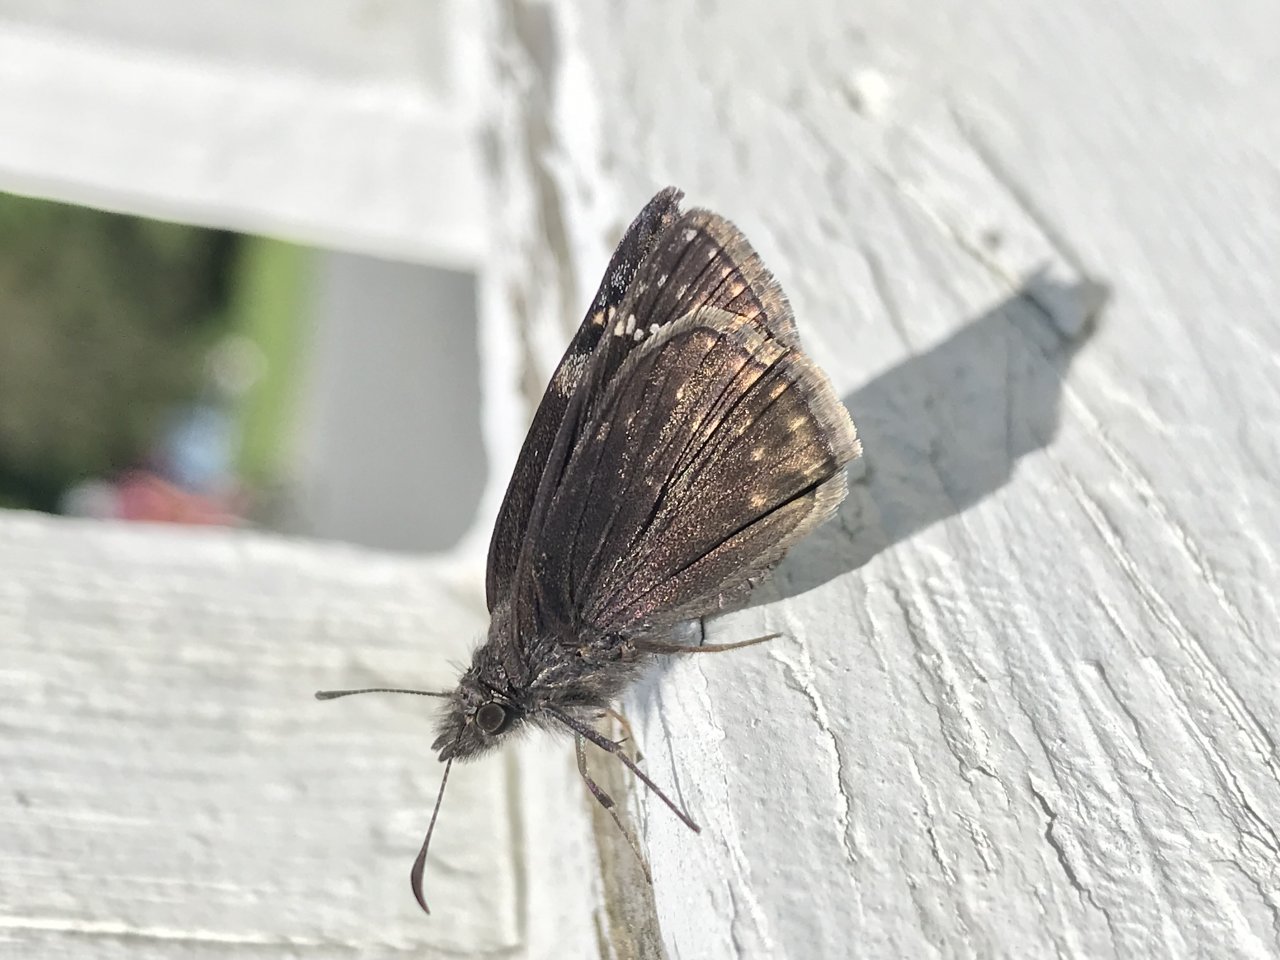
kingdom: Animalia
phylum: Arthropoda
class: Insecta
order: Lepidoptera
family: Hesperiidae
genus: Gesta
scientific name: Gesta
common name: Wild Indigo Duskywing
